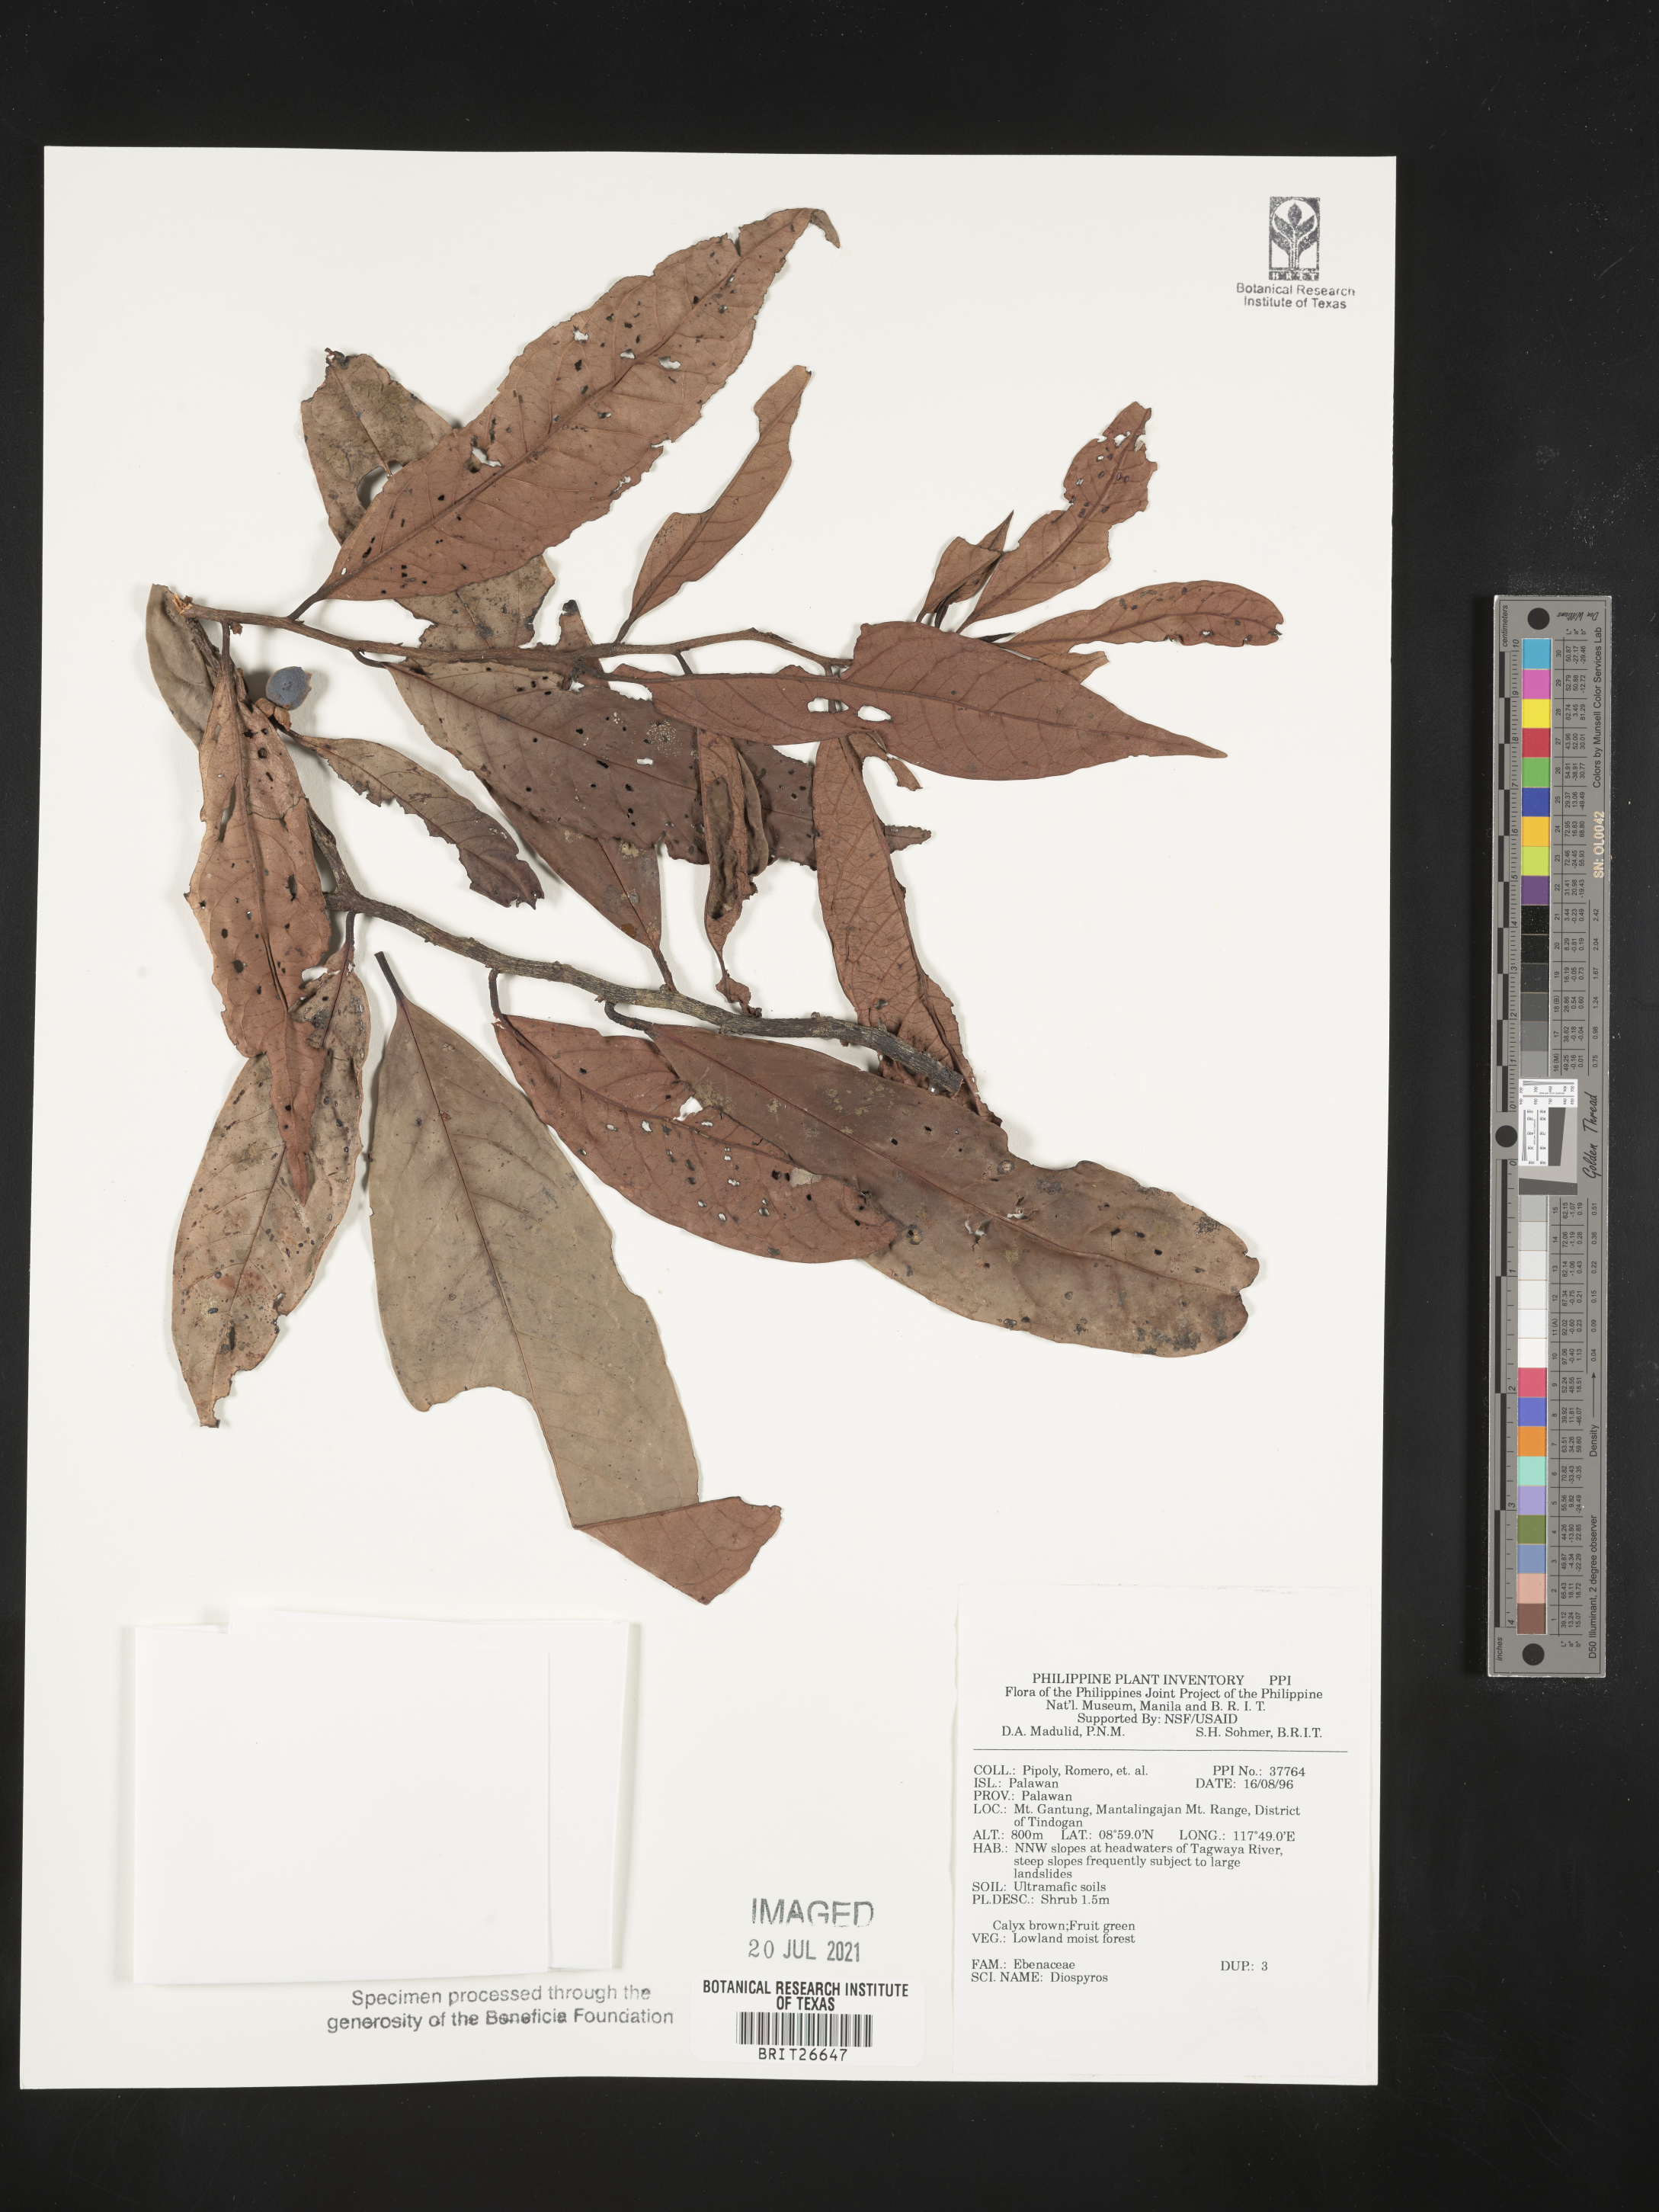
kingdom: Plantae
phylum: Tracheophyta
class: Magnoliopsida
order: Ericales
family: Ebenaceae
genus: Diospyros
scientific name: Diospyros
